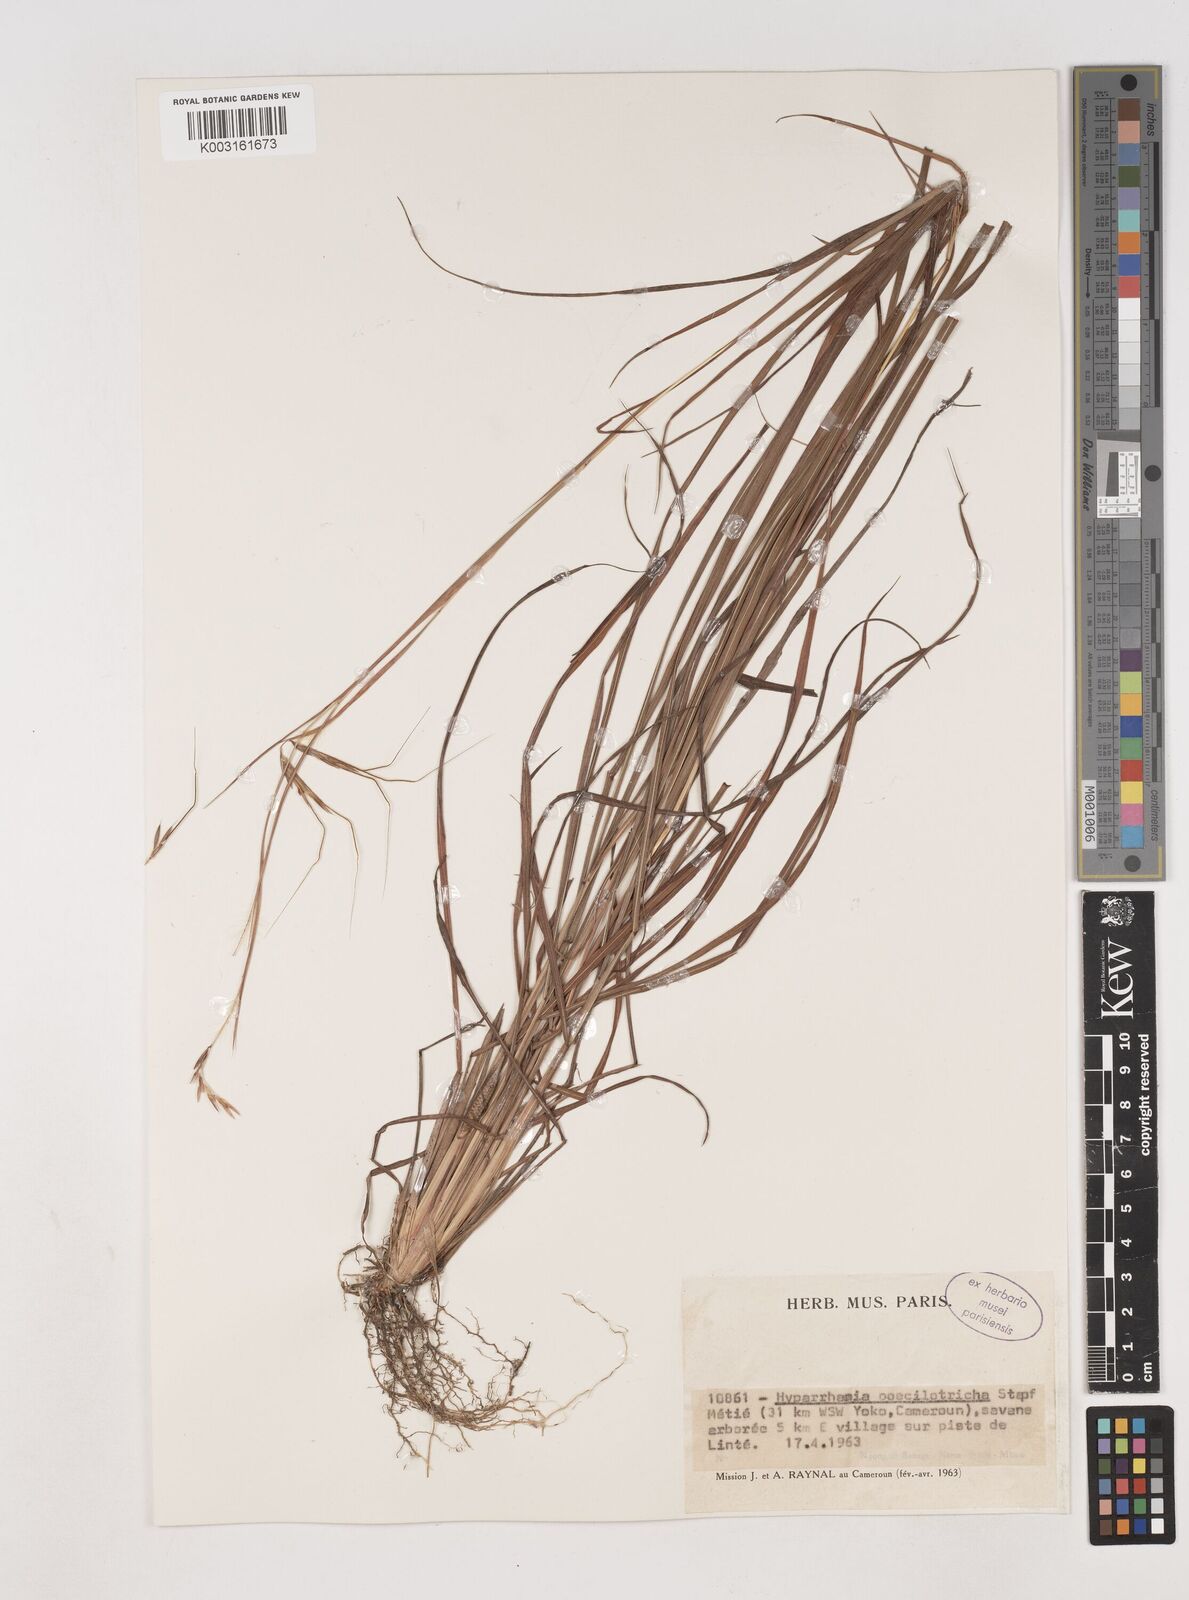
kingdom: Plantae
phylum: Tracheophyta
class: Liliopsida
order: Poales
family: Poaceae
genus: Hyparrhenia
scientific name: Hyparrhenia poecilotricha
